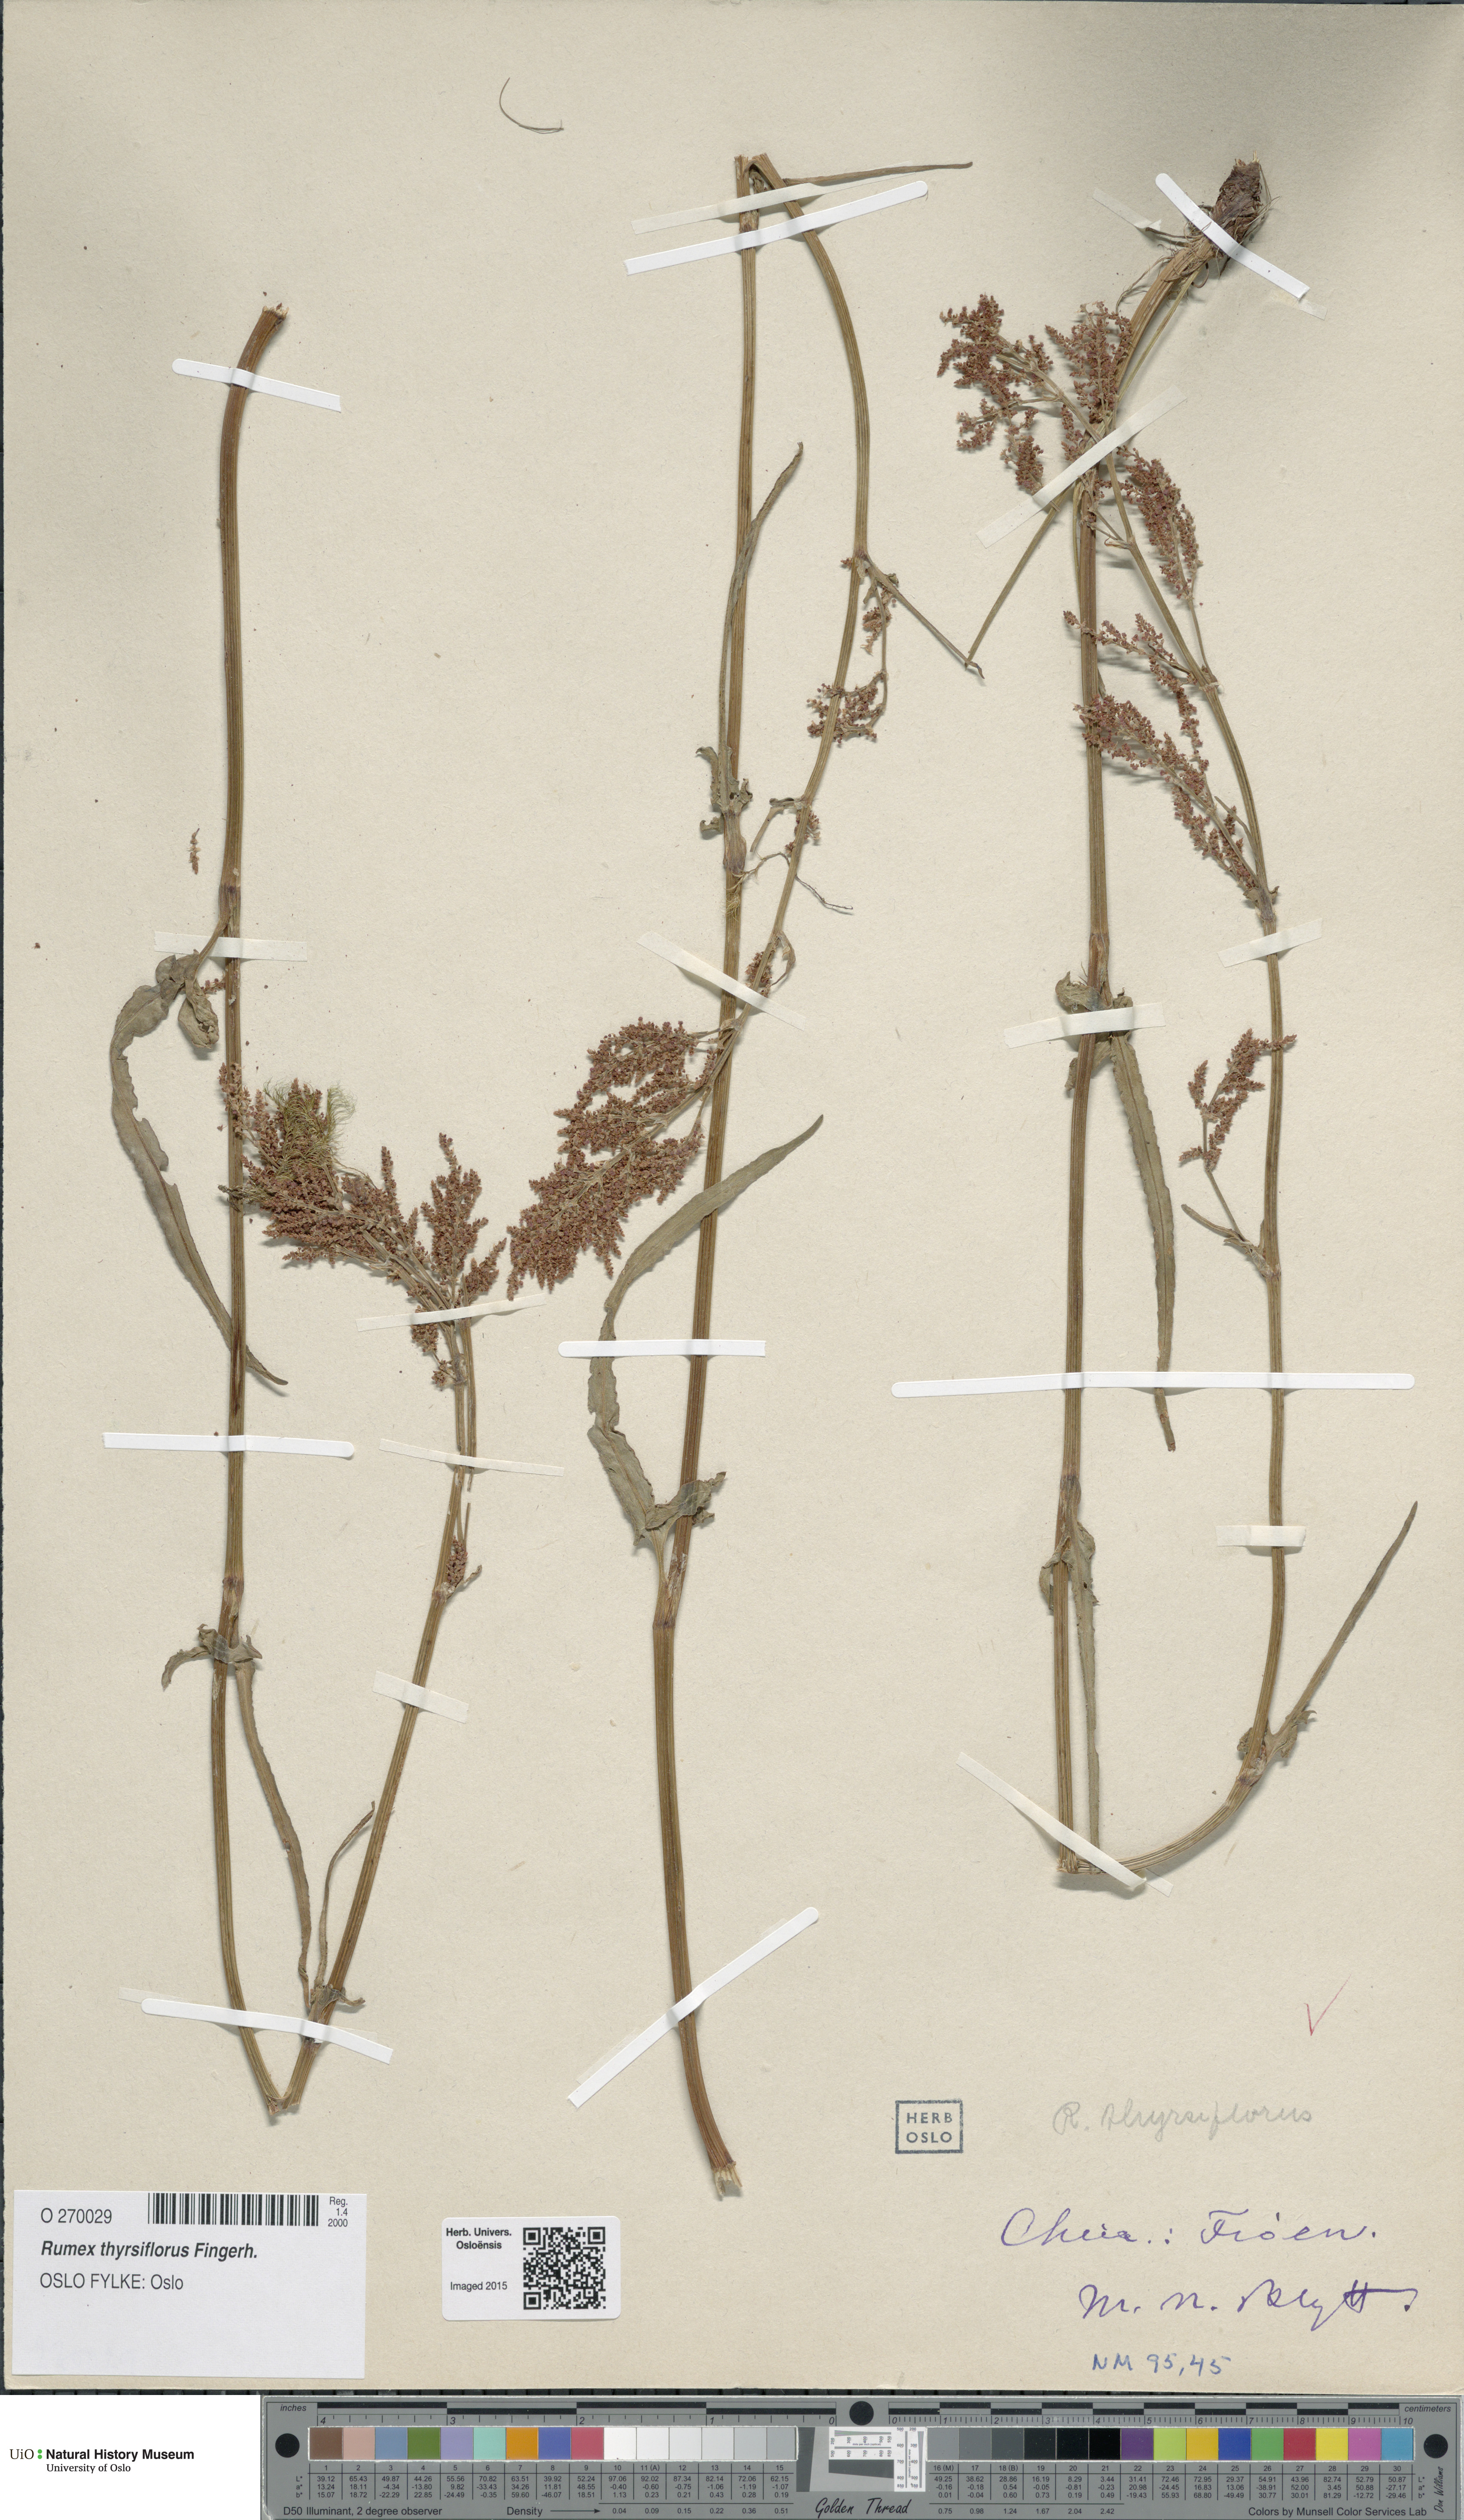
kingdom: Plantae
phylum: Tracheophyta
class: Magnoliopsida
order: Caryophyllales
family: Polygonaceae
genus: Rumex
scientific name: Rumex thyrsiflorus
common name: Garden sorrel
